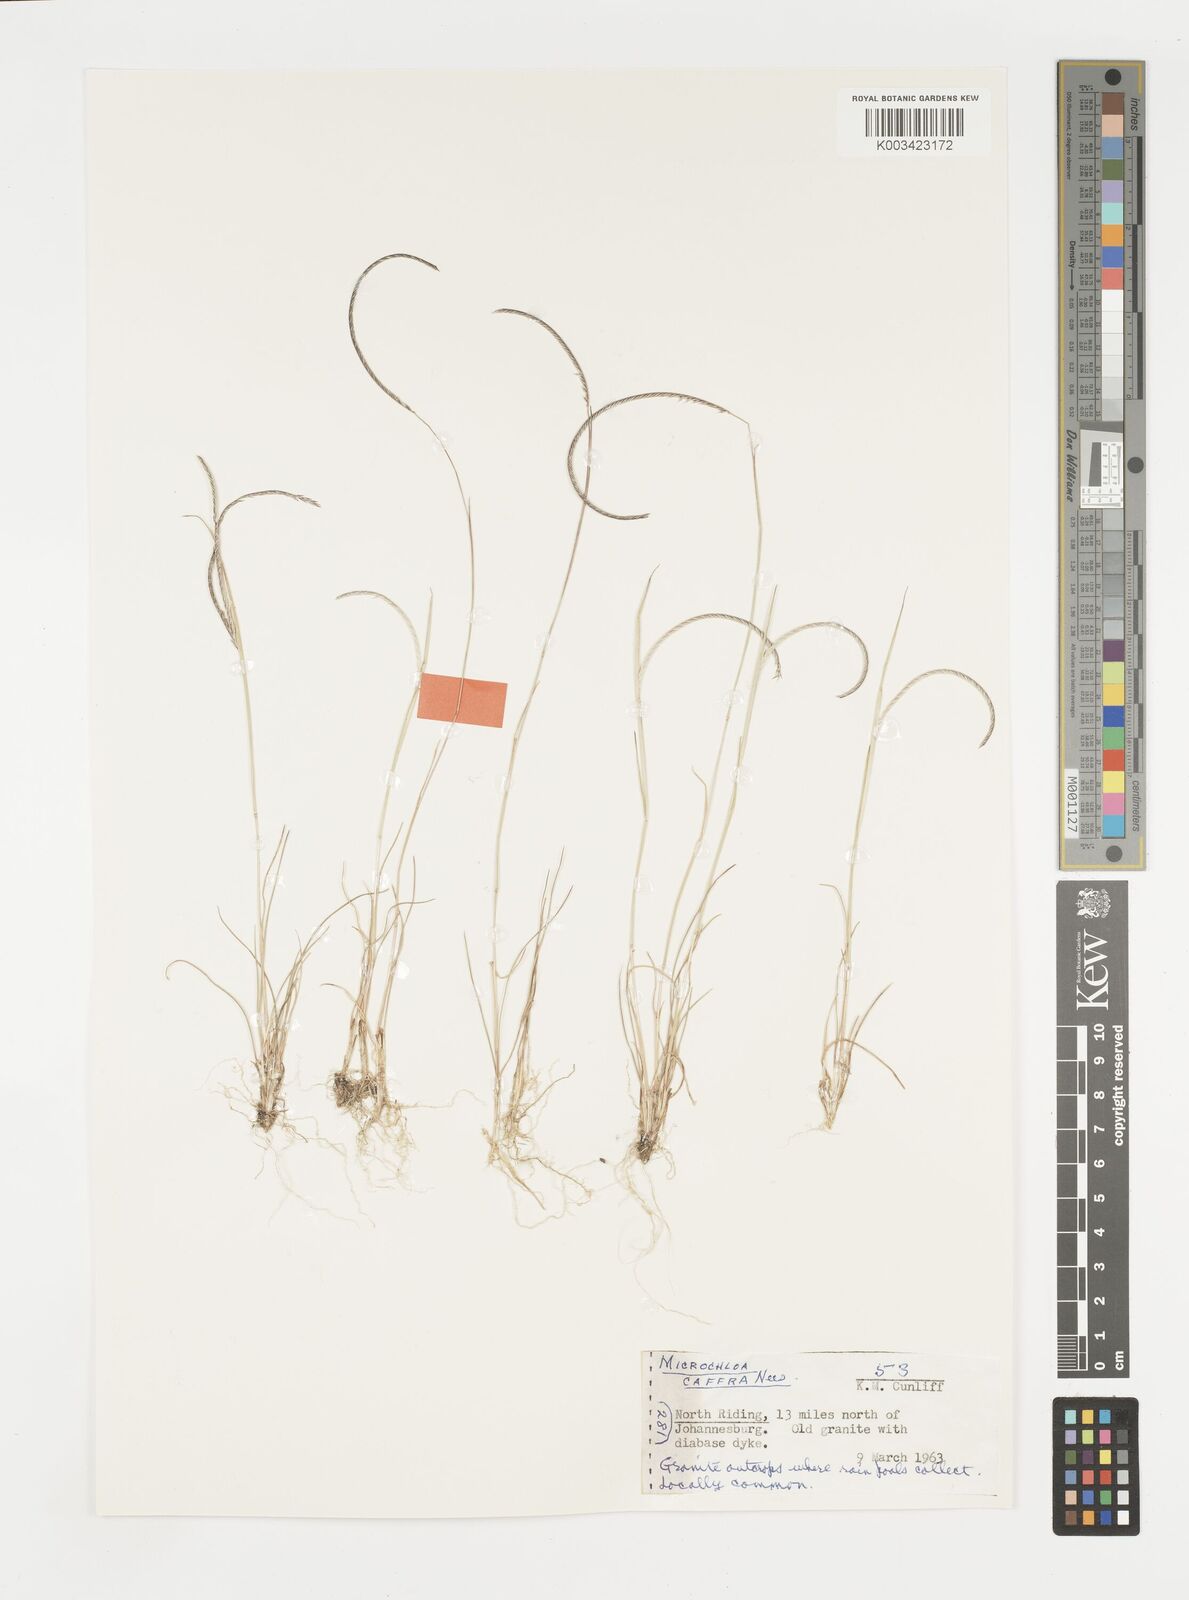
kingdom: Plantae
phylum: Tracheophyta
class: Liliopsida
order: Poales
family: Poaceae
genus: Microchloa
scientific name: Microchloa caffra
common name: Pincushion grass
